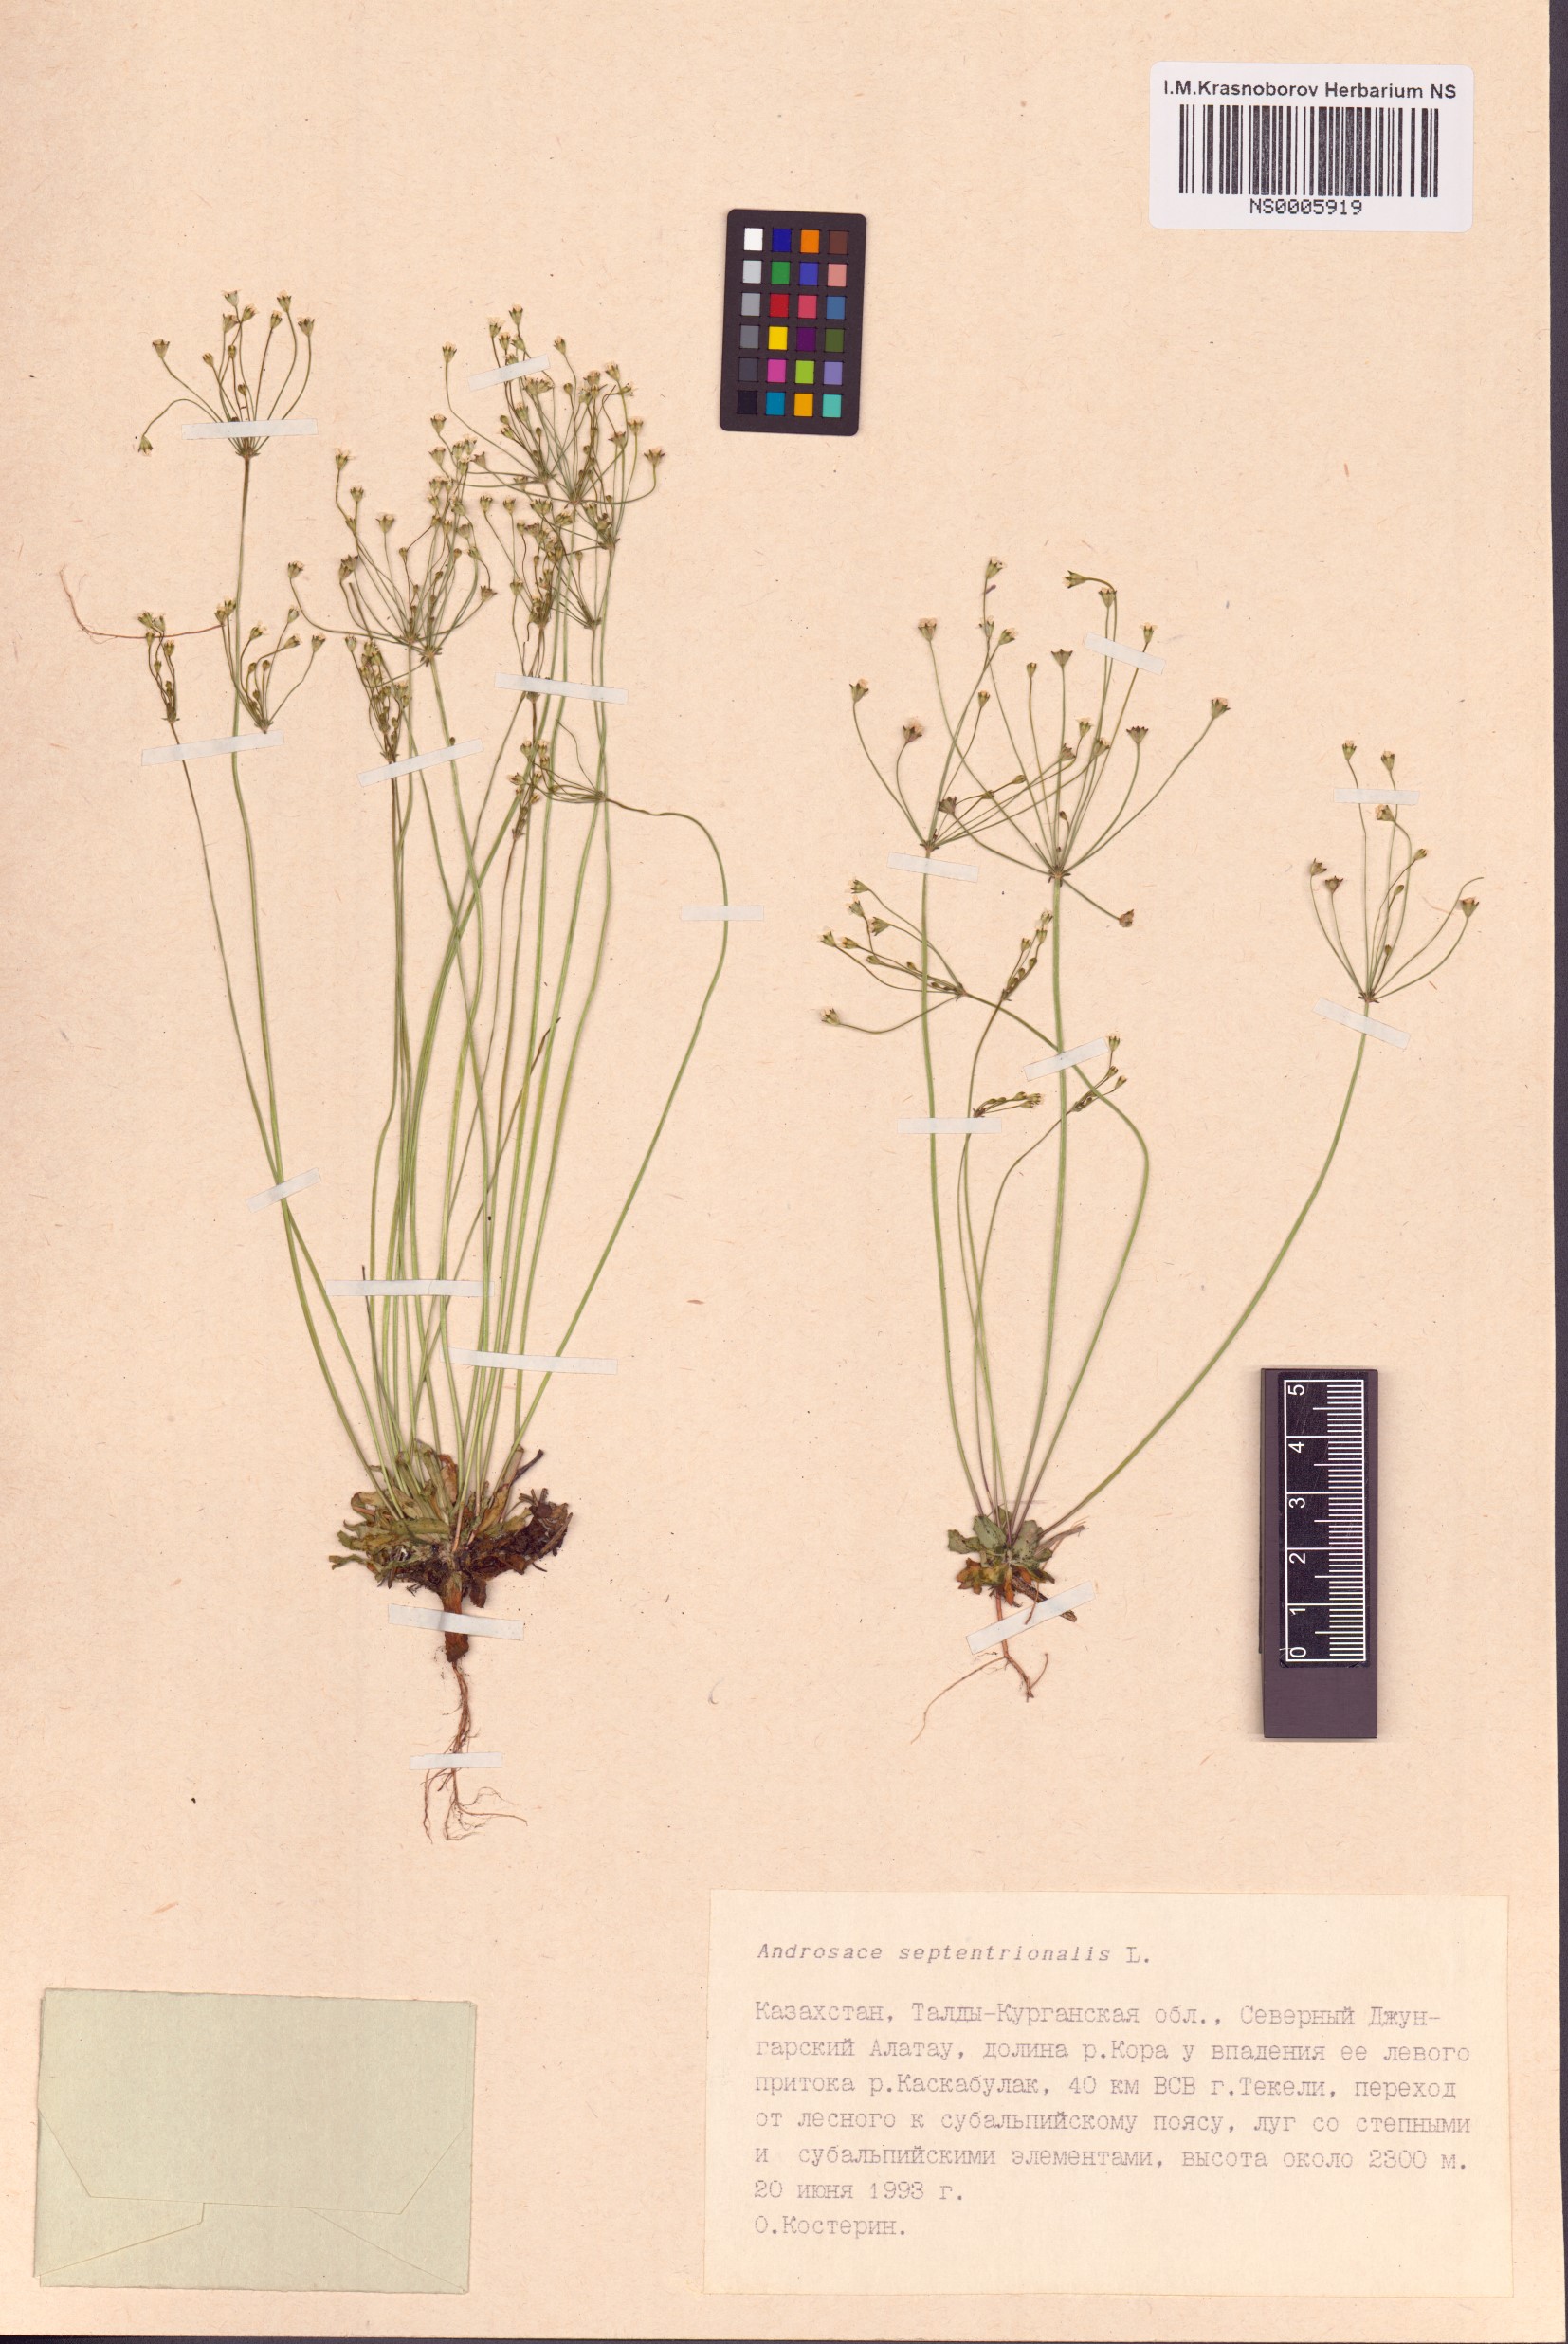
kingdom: Plantae
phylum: Tracheophyta
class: Magnoliopsida
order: Ericales
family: Primulaceae
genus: Androsace
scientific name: Androsace septentrionalis
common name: Hairy northern fairy-candelabra
